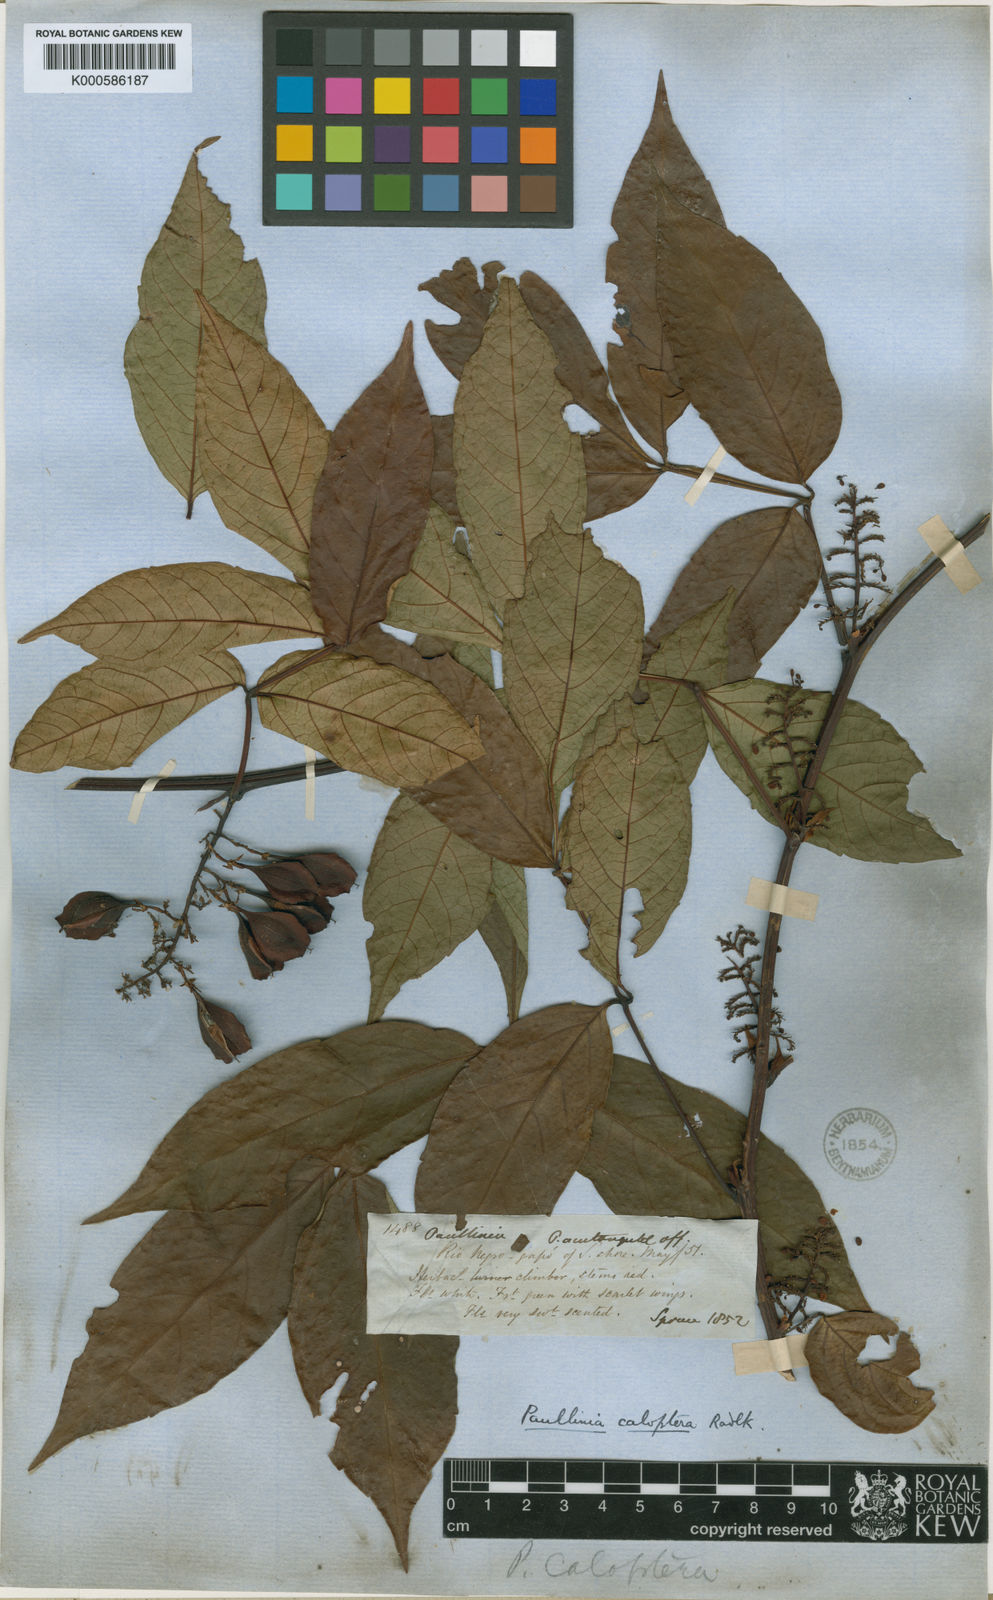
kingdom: Plantae
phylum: Tracheophyta
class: Magnoliopsida
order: Sapindales
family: Sapindaceae
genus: Paullinia
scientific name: Paullinia caloptera
